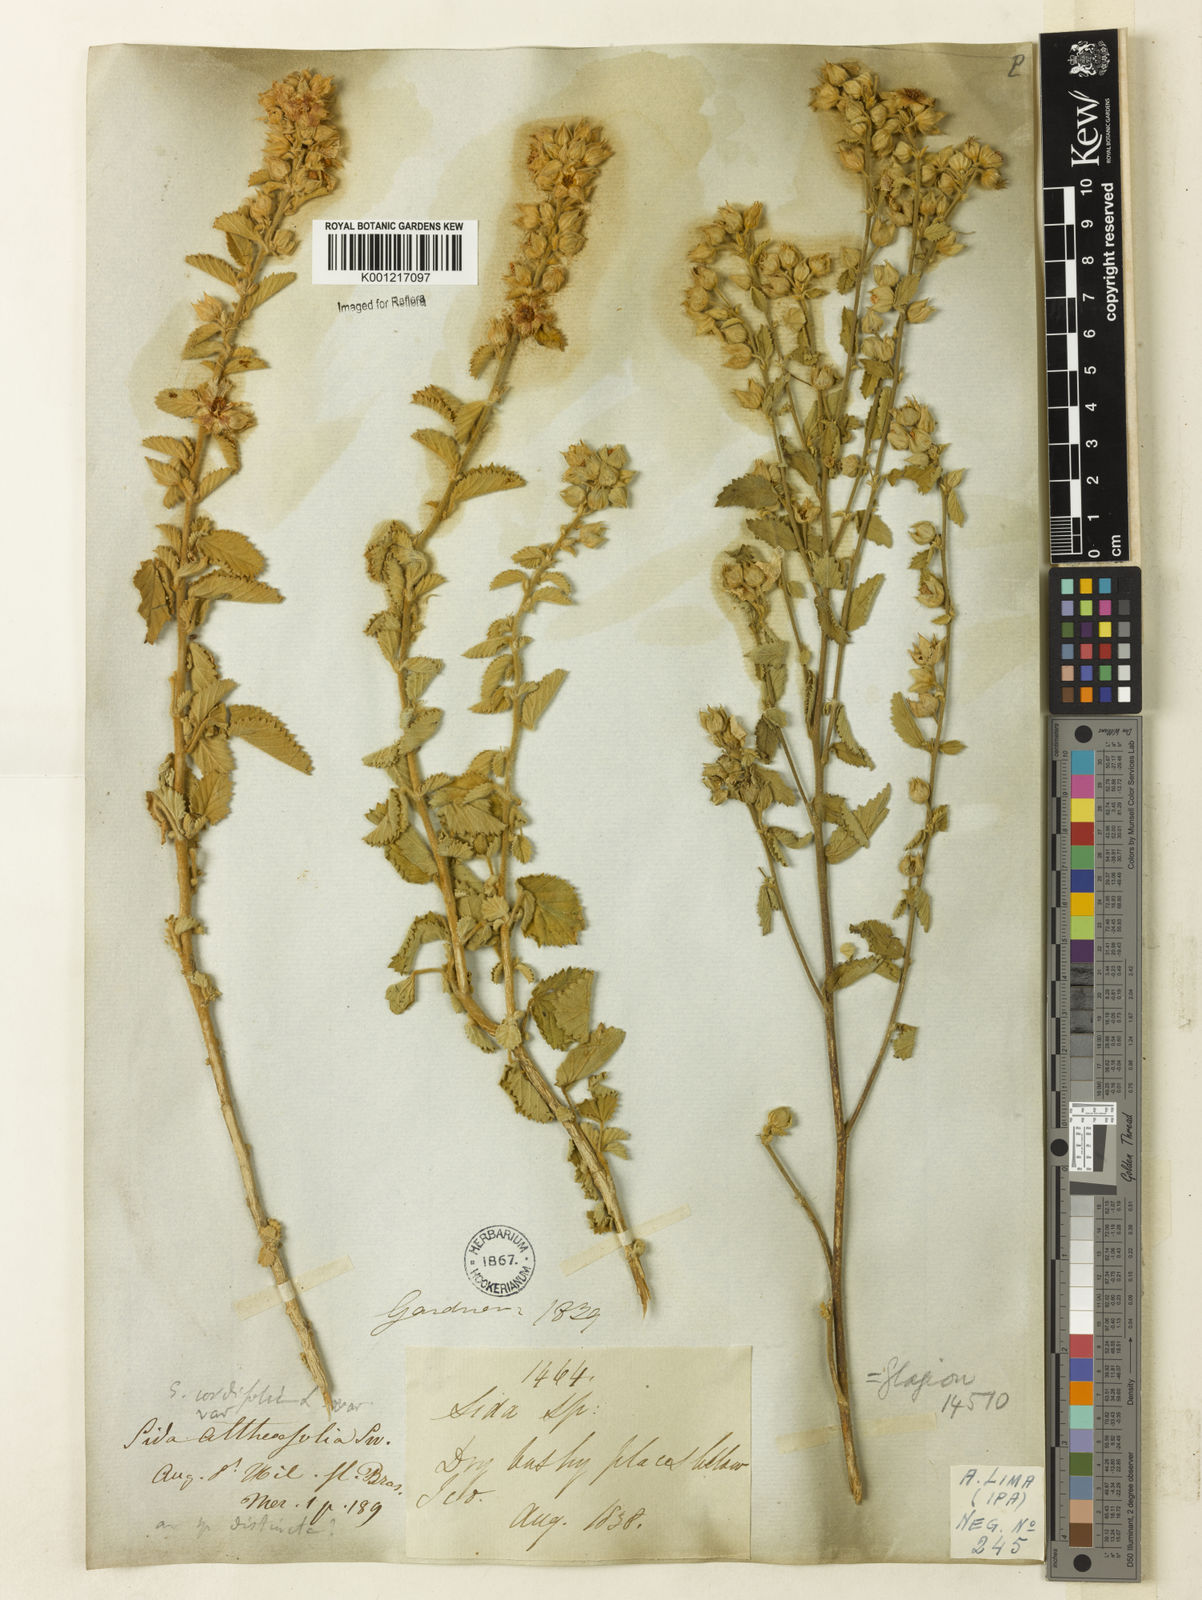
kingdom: Plantae
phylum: Tracheophyta
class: Magnoliopsida
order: Malvales
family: Malvaceae
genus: Sida
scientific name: Sida cordifolia
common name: Ilima
